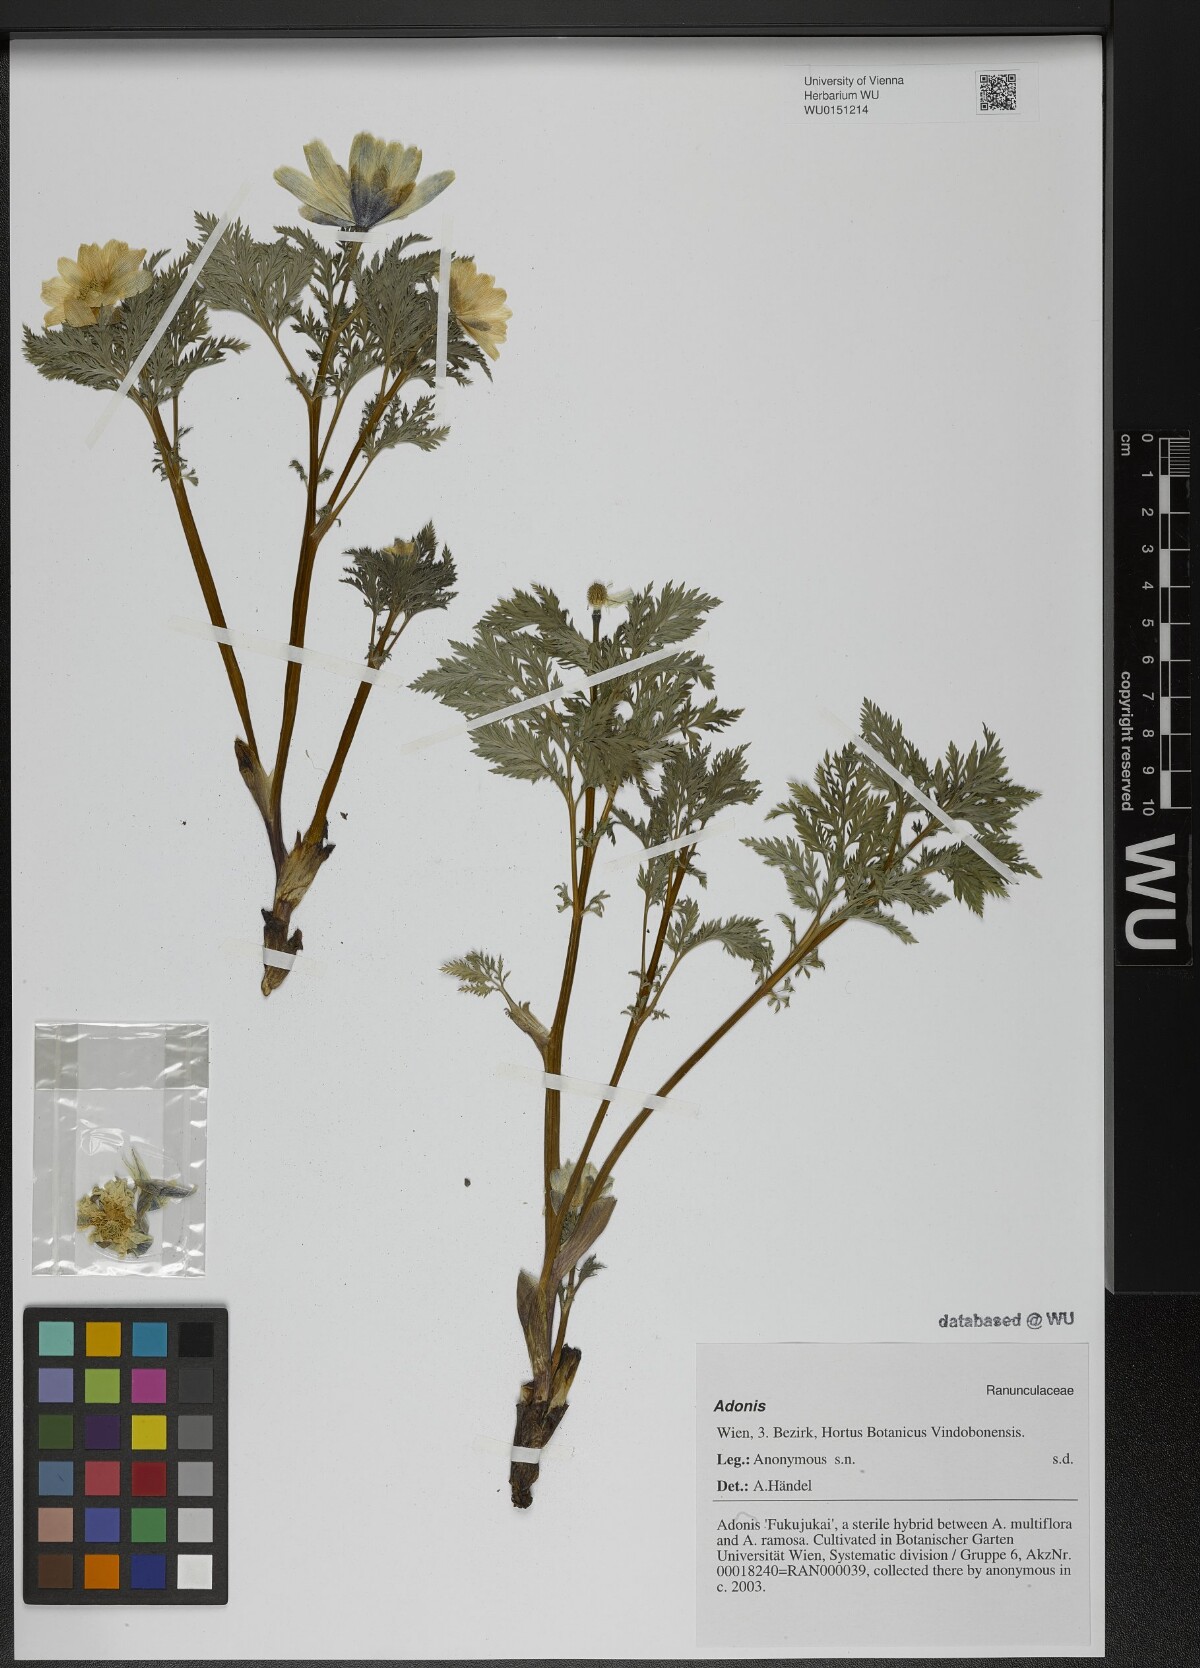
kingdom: Plantae
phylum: Tracheophyta
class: Magnoliopsida
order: Ranunculales
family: Ranunculaceae
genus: Adonis
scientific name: Adonis
